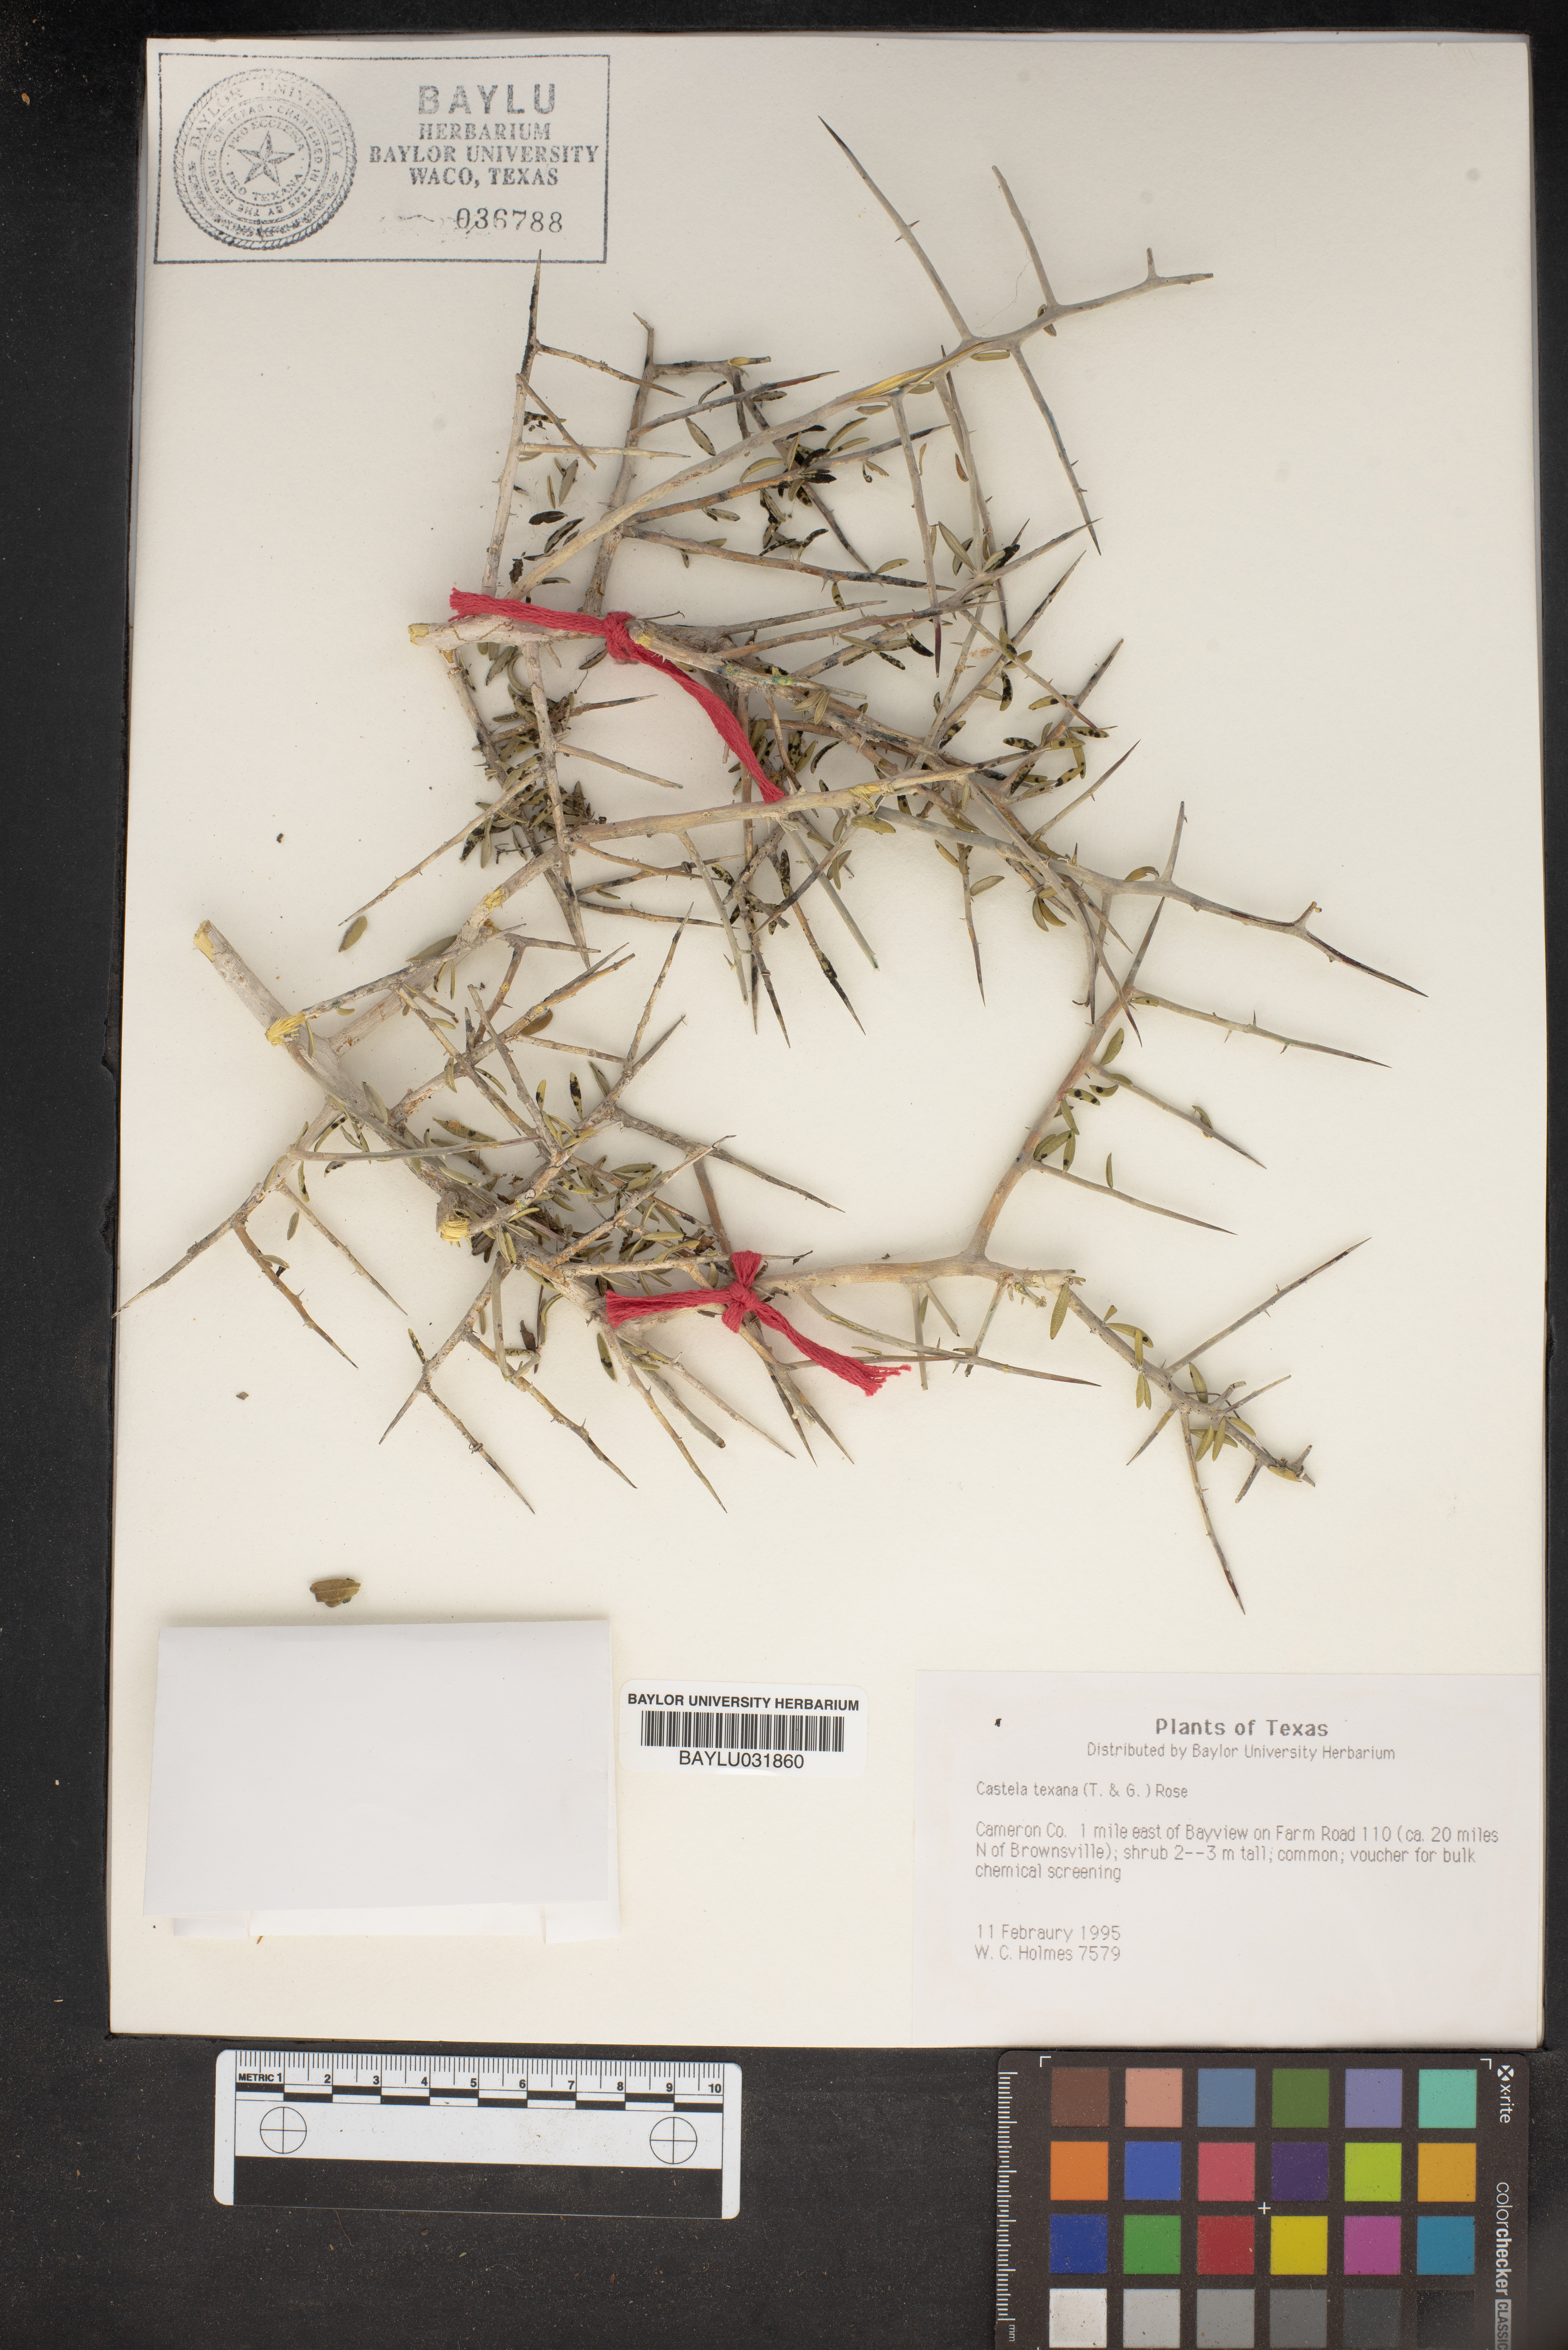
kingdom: Plantae
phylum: Tracheophyta
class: Magnoliopsida
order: Sapindales
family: Simaroubaceae
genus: Castela
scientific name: Castela tortuosa
